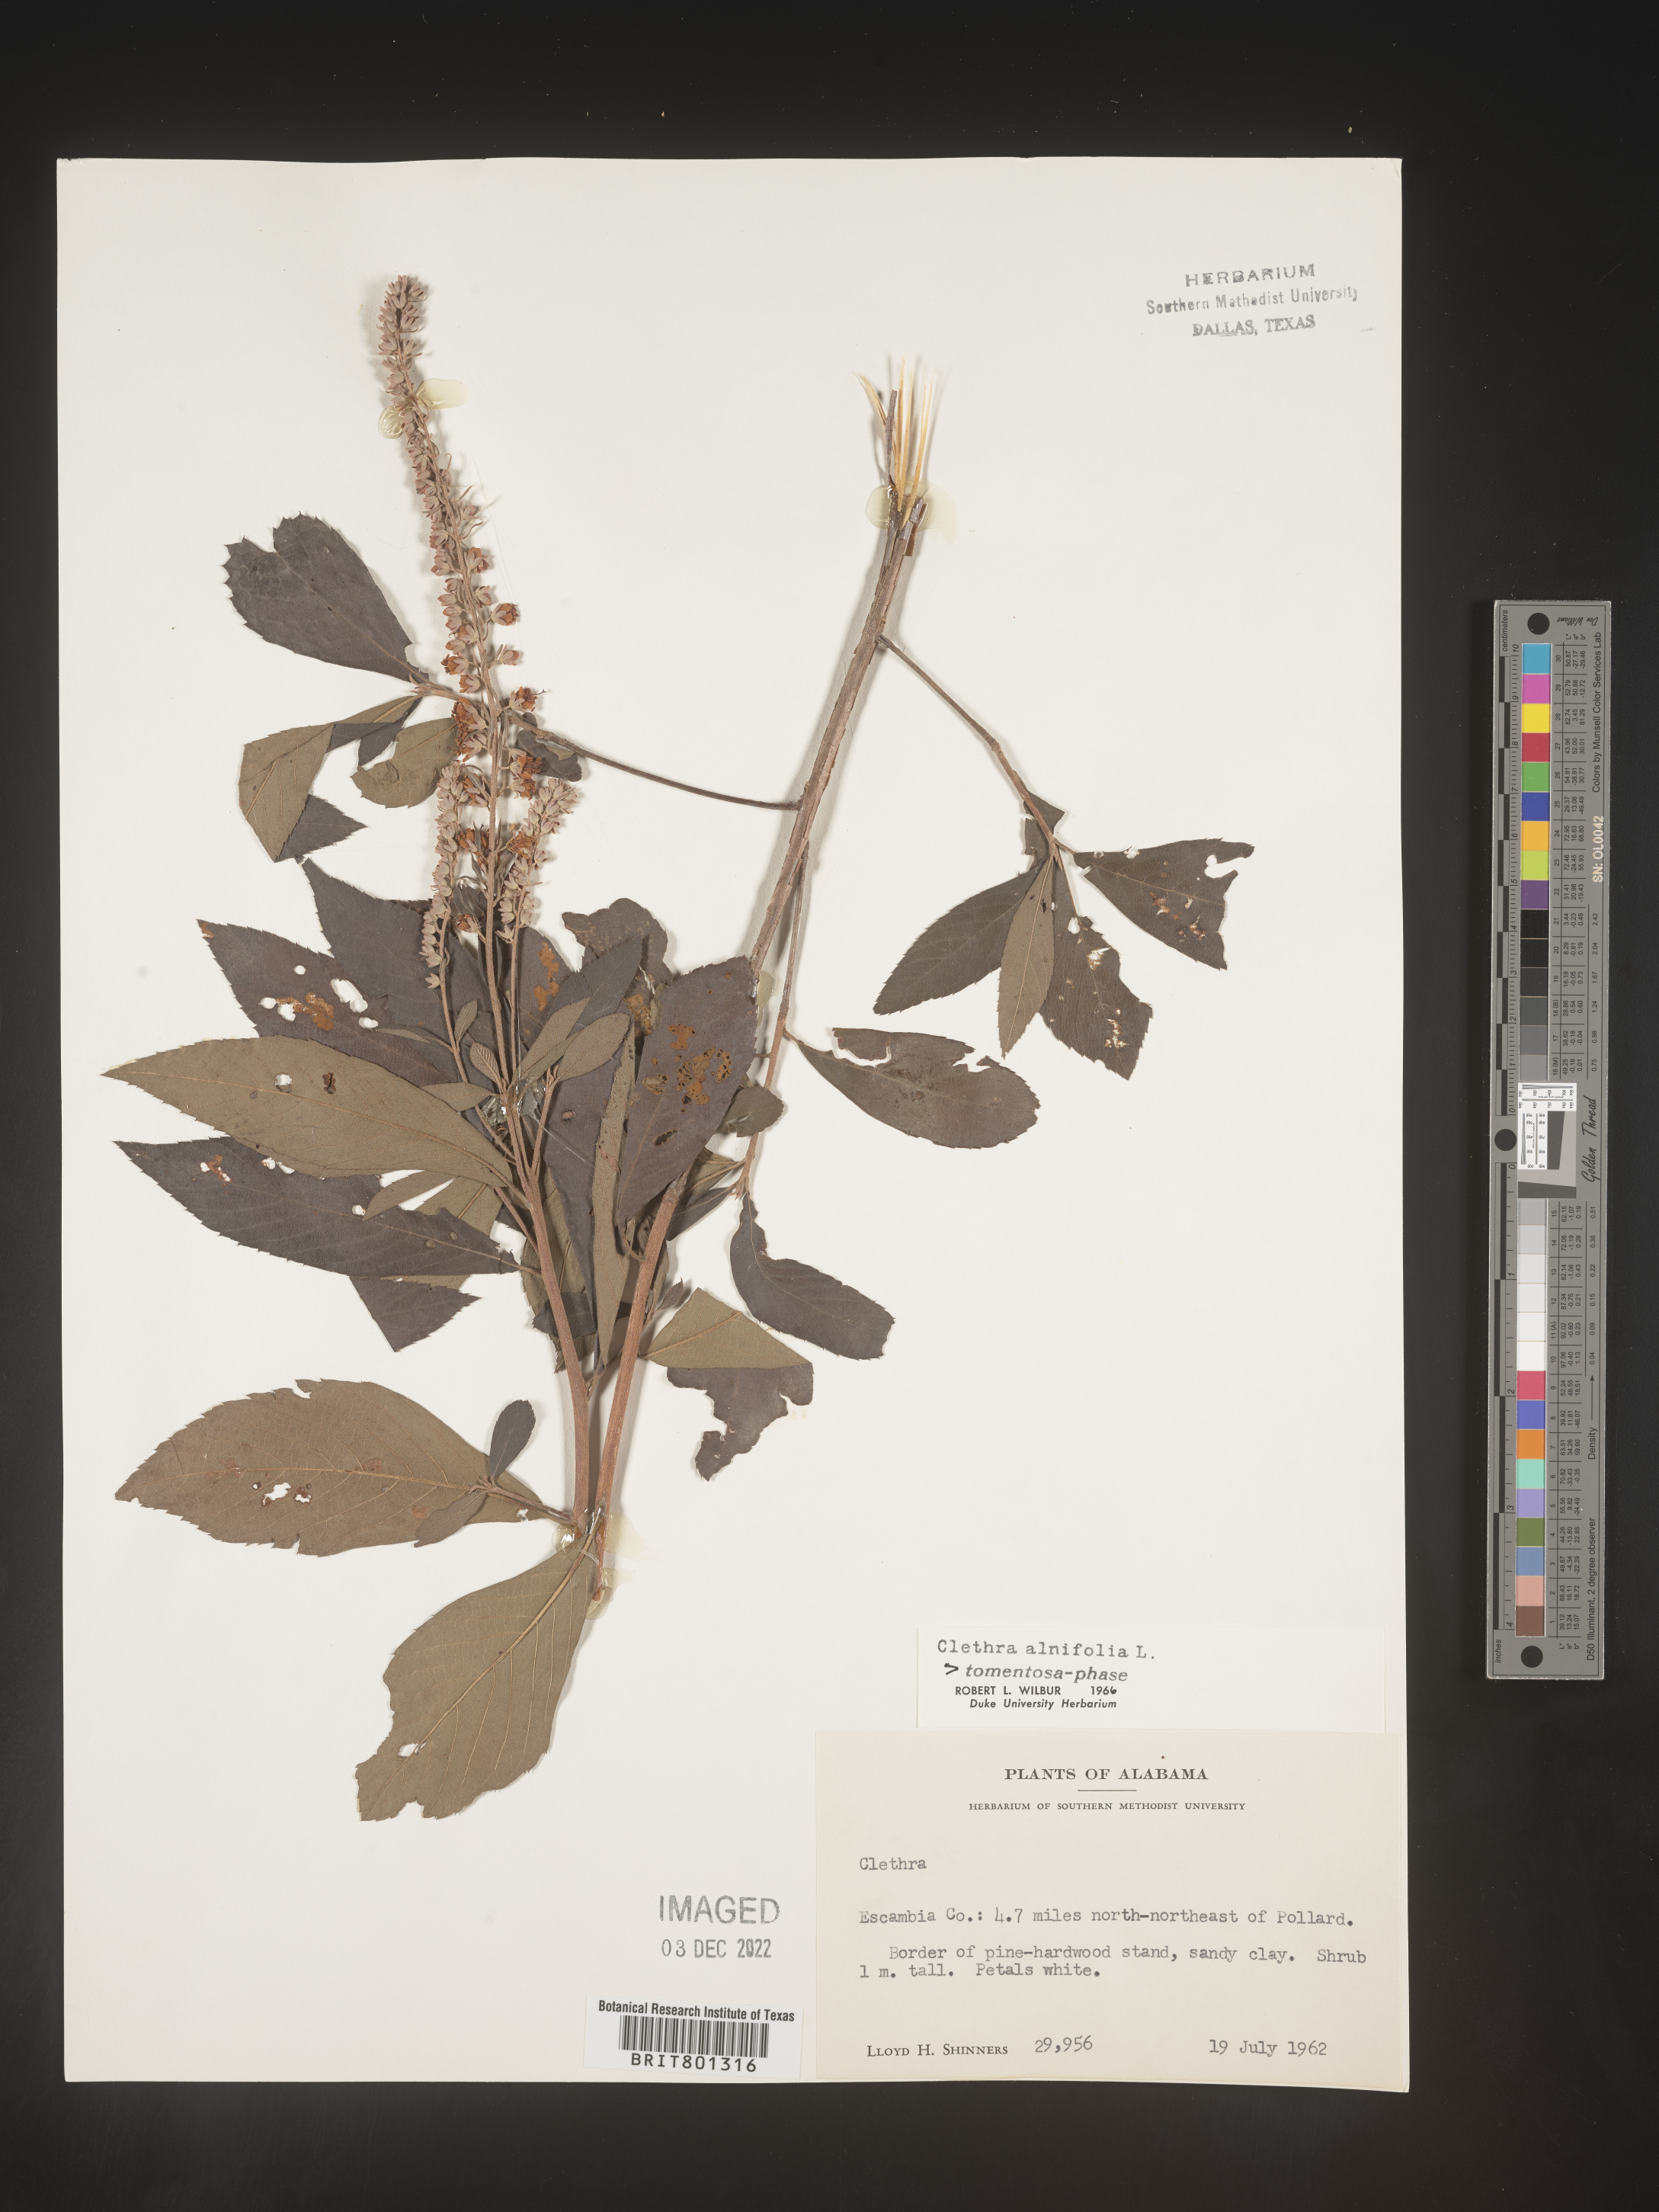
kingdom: Plantae
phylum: Tracheophyta
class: Magnoliopsida
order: Ericales
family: Clethraceae
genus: Clethra
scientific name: Clethra alnifolia
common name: Sweet pepperbush
